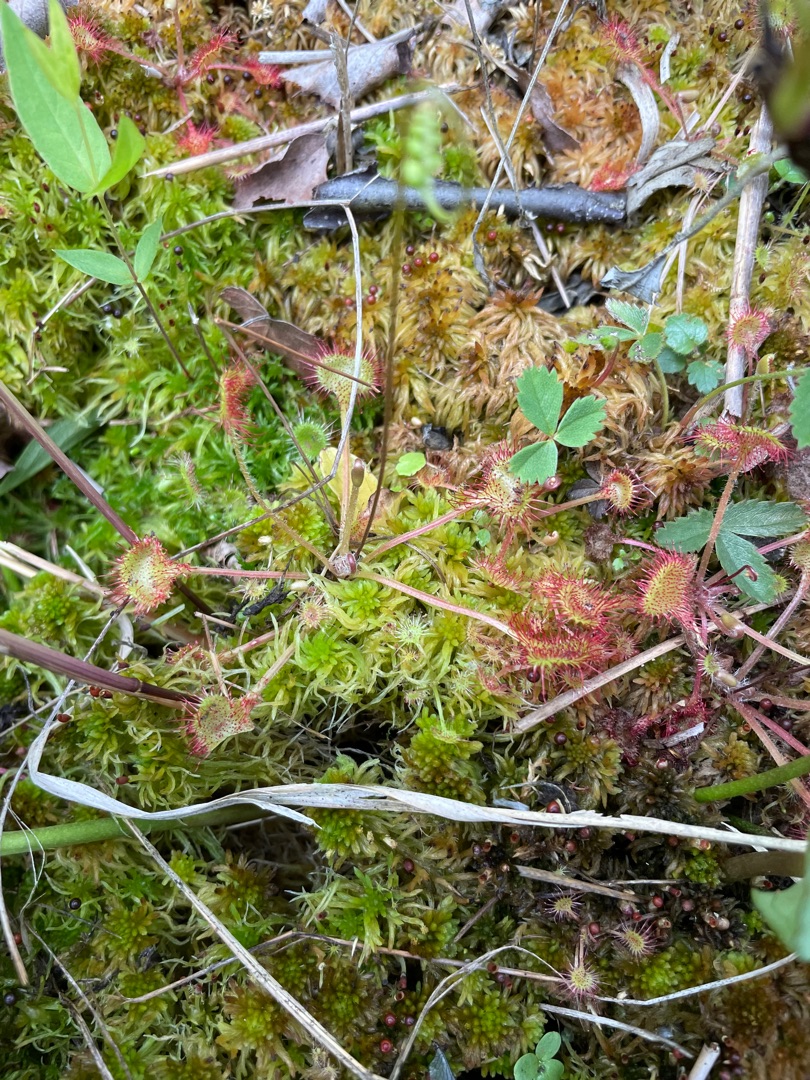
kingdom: Plantae
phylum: Tracheophyta
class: Magnoliopsida
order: Caryophyllales
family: Droseraceae
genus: Drosera
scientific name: Drosera rotundifolia
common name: Rundbladet soldug
